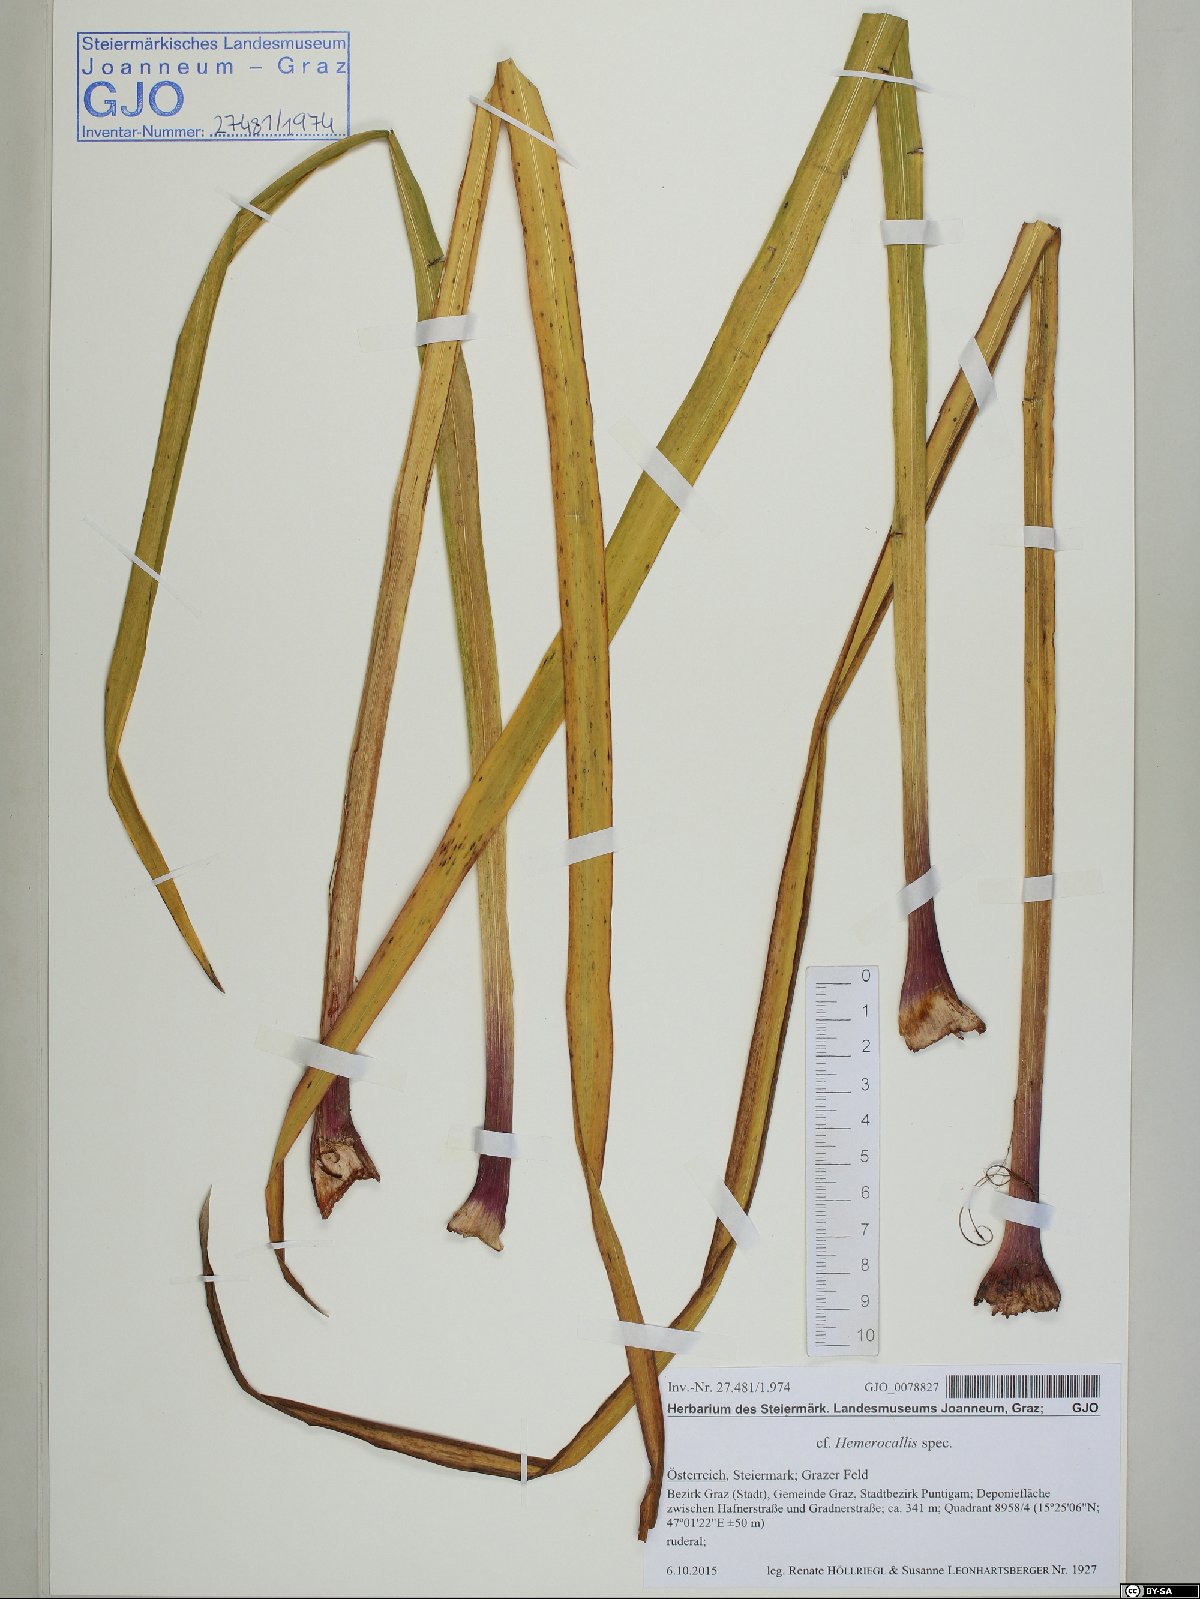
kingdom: Plantae
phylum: Tracheophyta
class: Liliopsida
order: Asparagales
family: Asphodelaceae
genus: Hemerocallis
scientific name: Hemerocallis
